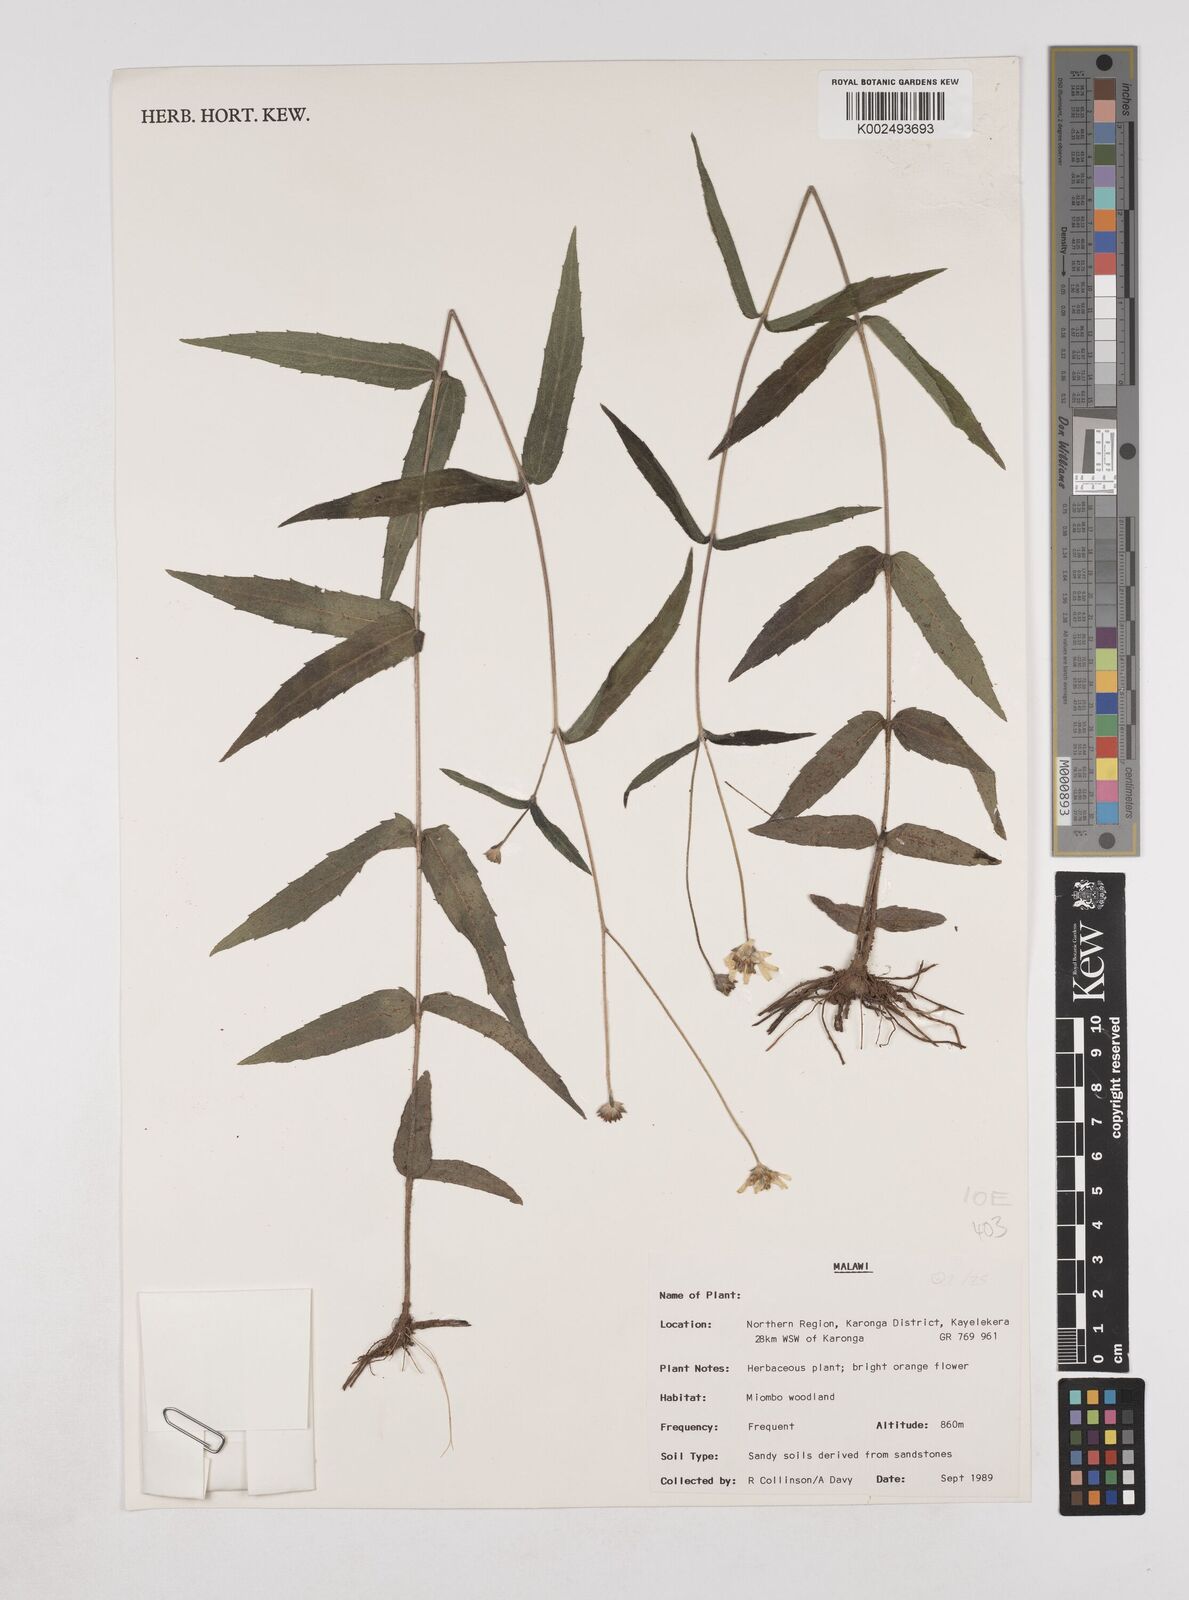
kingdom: Plantae
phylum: Tracheophyta
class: Magnoliopsida
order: Asterales
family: Asteraceae
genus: Lipotriche
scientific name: Lipotriche scandens
